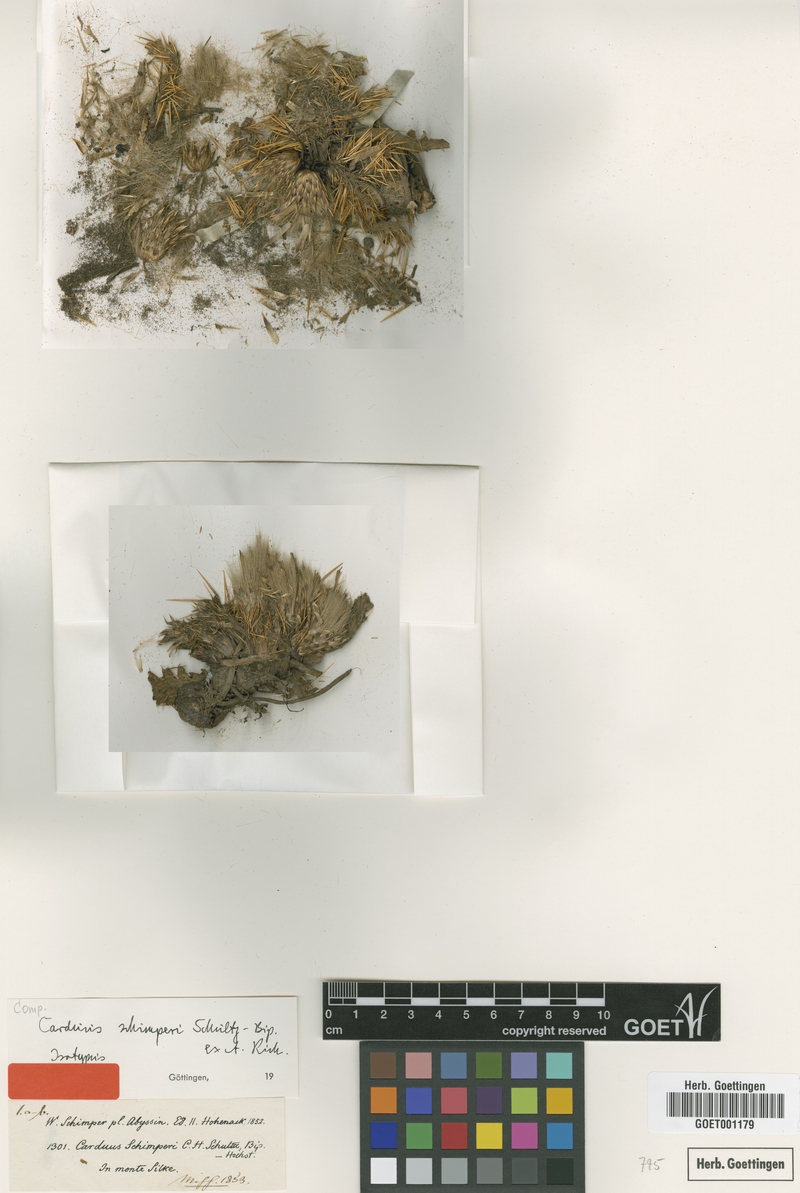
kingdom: Plantae
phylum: Tracheophyta
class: Magnoliopsida
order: Asterales
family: Asteraceae
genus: Carduus
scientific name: Carduus schimperi
